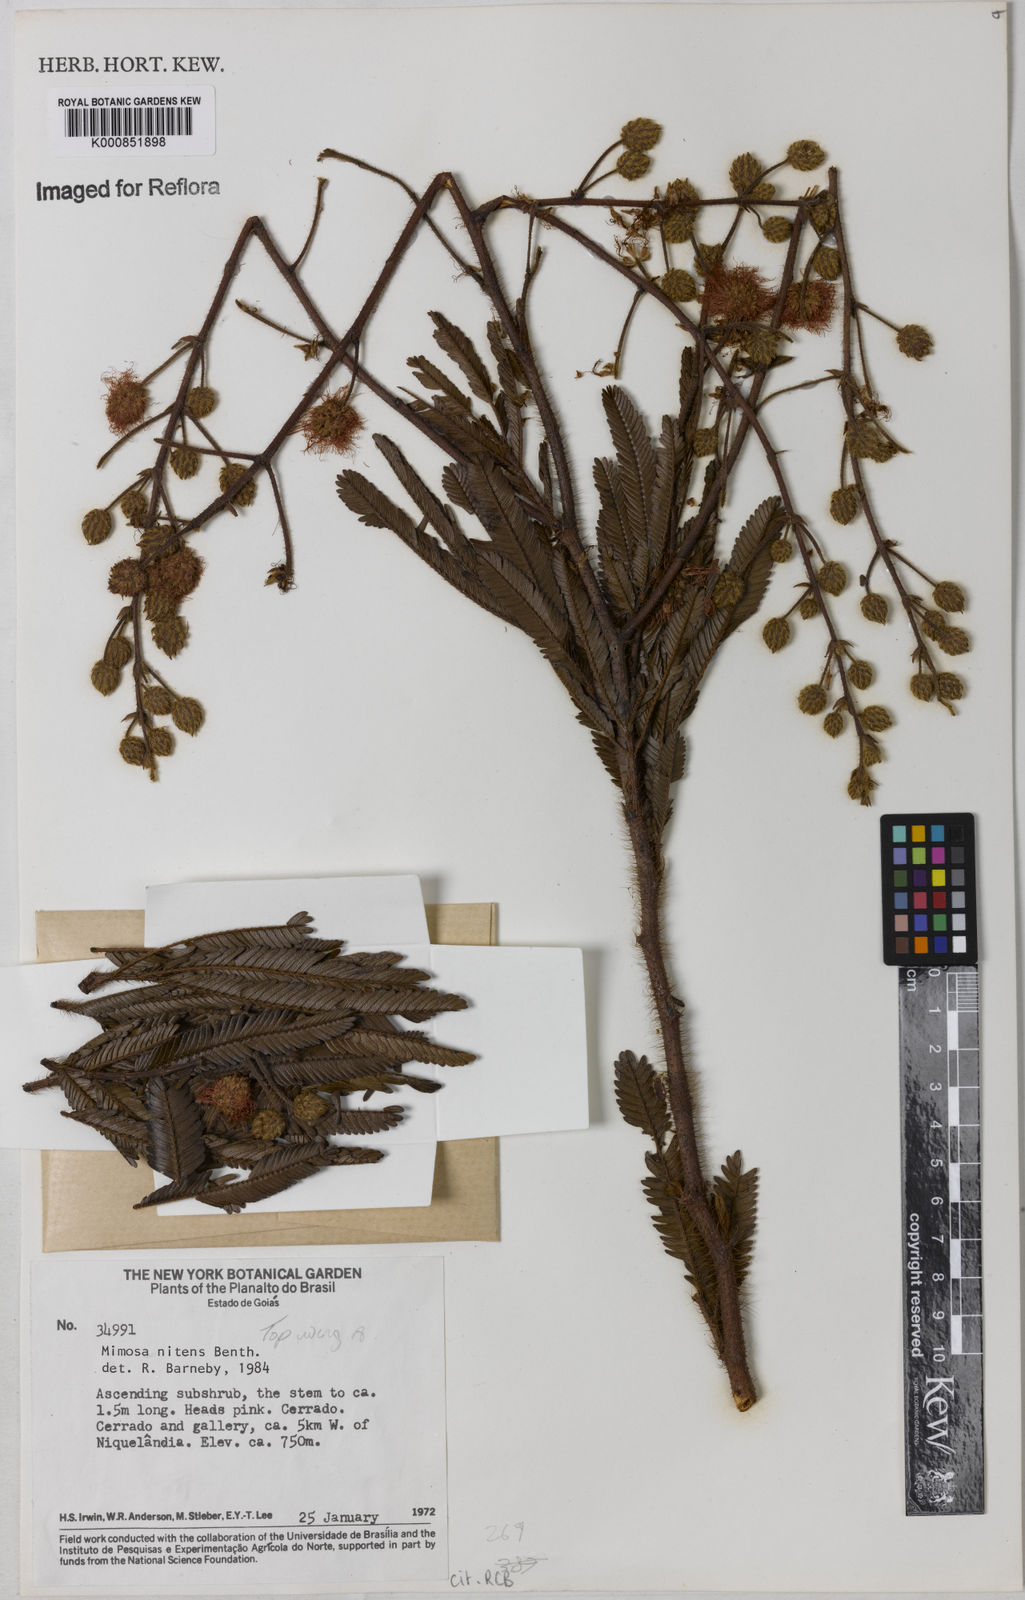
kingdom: Plantae
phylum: Tracheophyta
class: Magnoliopsida
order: Fabales
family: Fabaceae
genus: Mimosa
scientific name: Mimosa nitens
